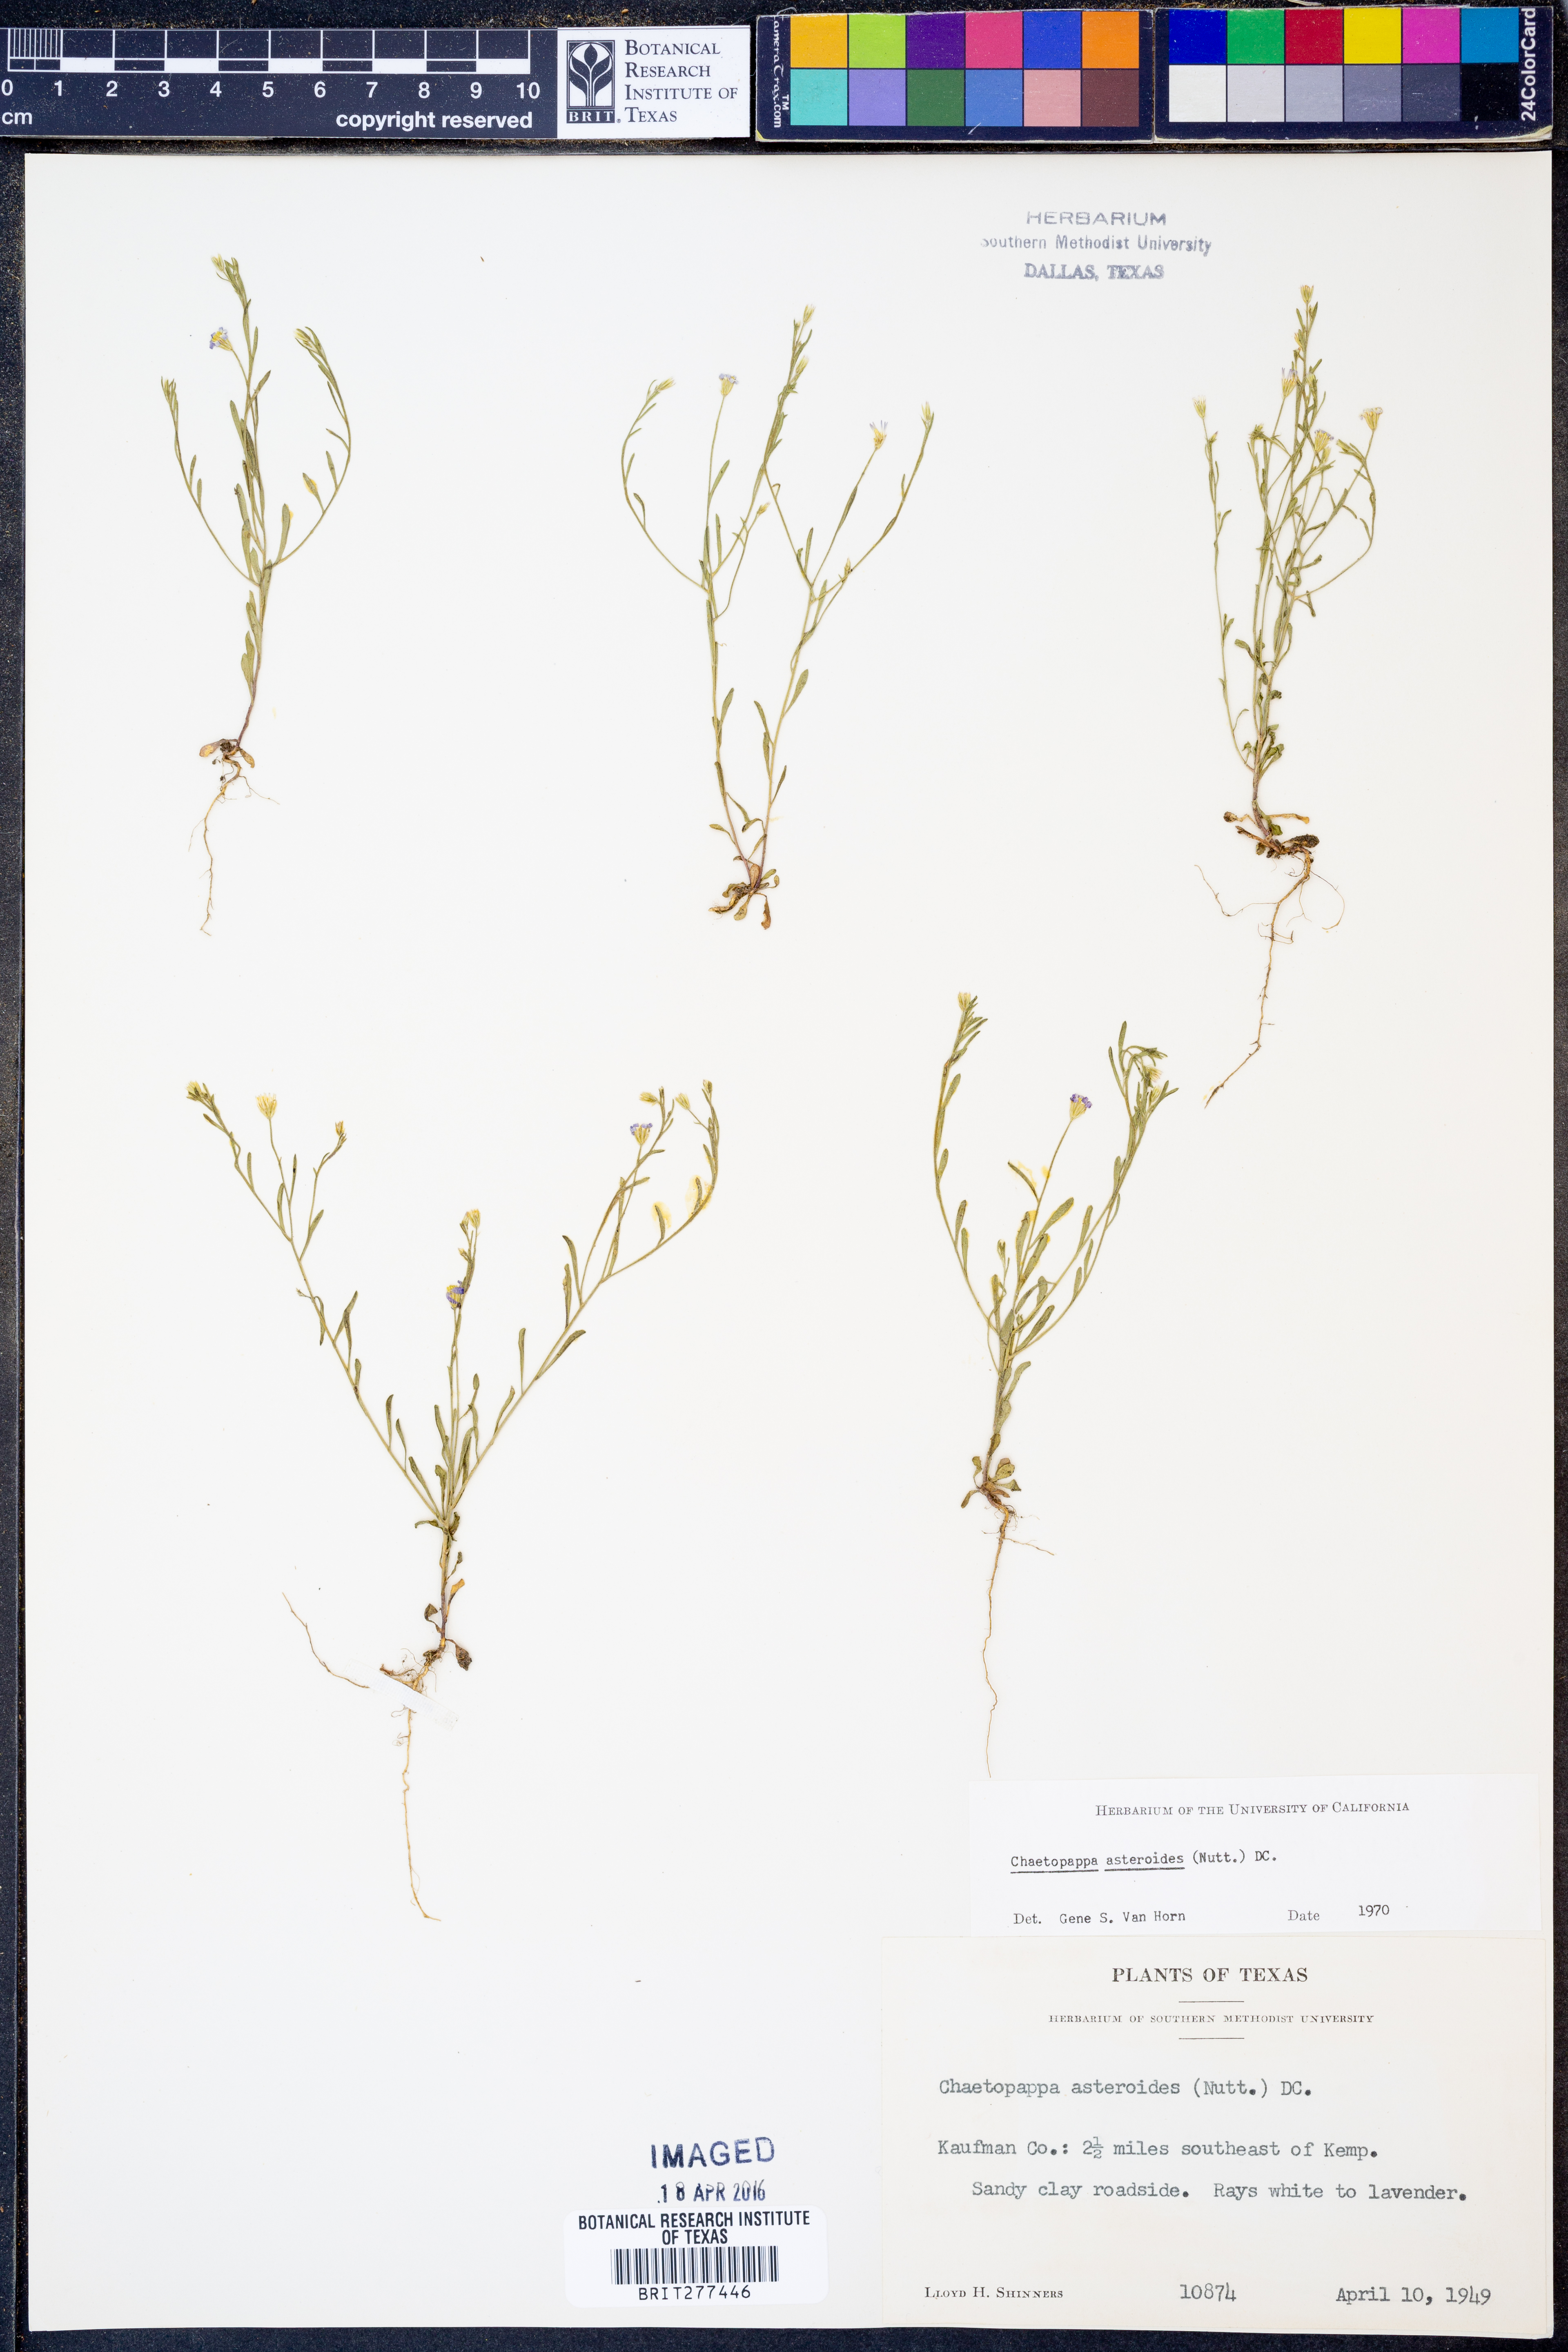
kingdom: Plantae
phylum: Tracheophyta
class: Magnoliopsida
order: Asterales
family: Asteraceae
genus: Chaetopappa
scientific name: Chaetopappa asteroides
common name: Tiny lazy daisy
